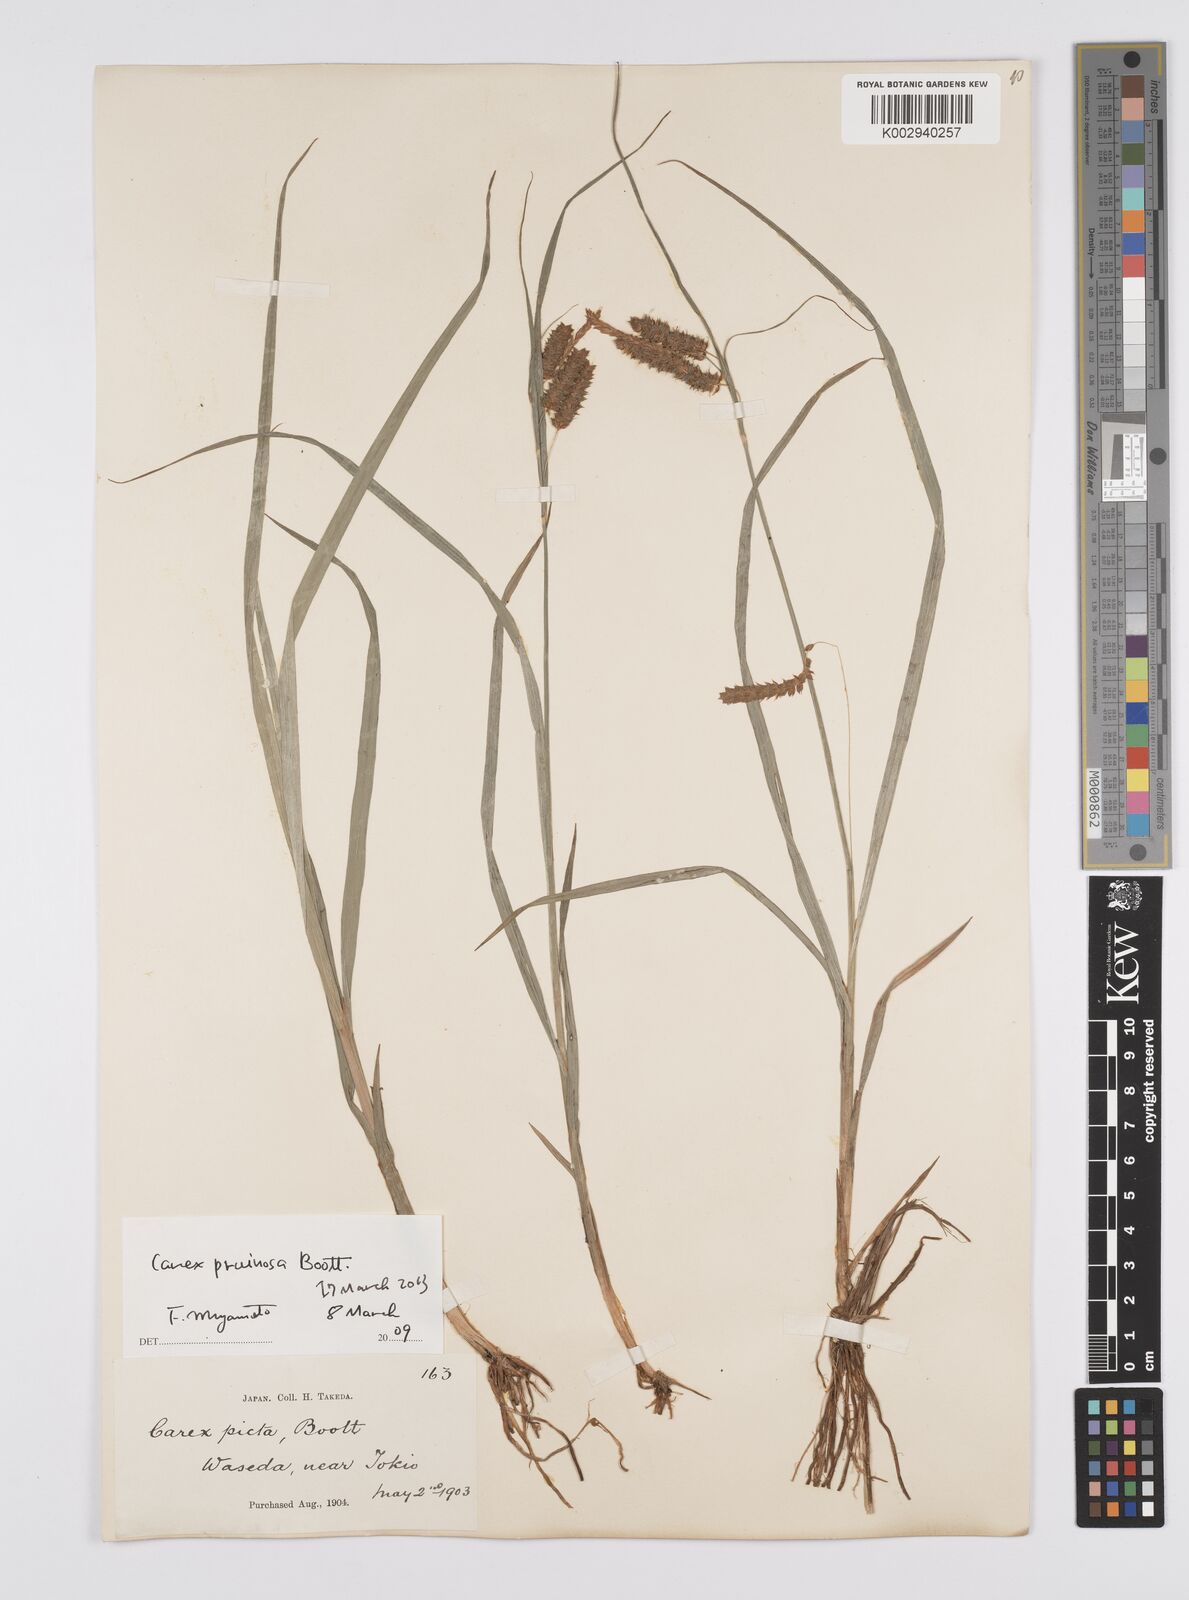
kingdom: Plantae
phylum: Tracheophyta
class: Liliopsida
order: Poales
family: Cyperaceae
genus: Carex
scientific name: Carex pruinosa
